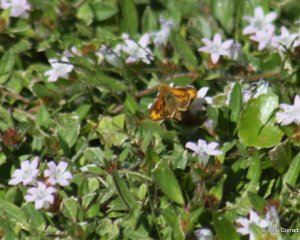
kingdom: Animalia
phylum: Arthropoda
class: Insecta
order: Lepidoptera
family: Hesperiidae
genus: Hylephila
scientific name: Hylephila phyleus
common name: Fiery Skipper
